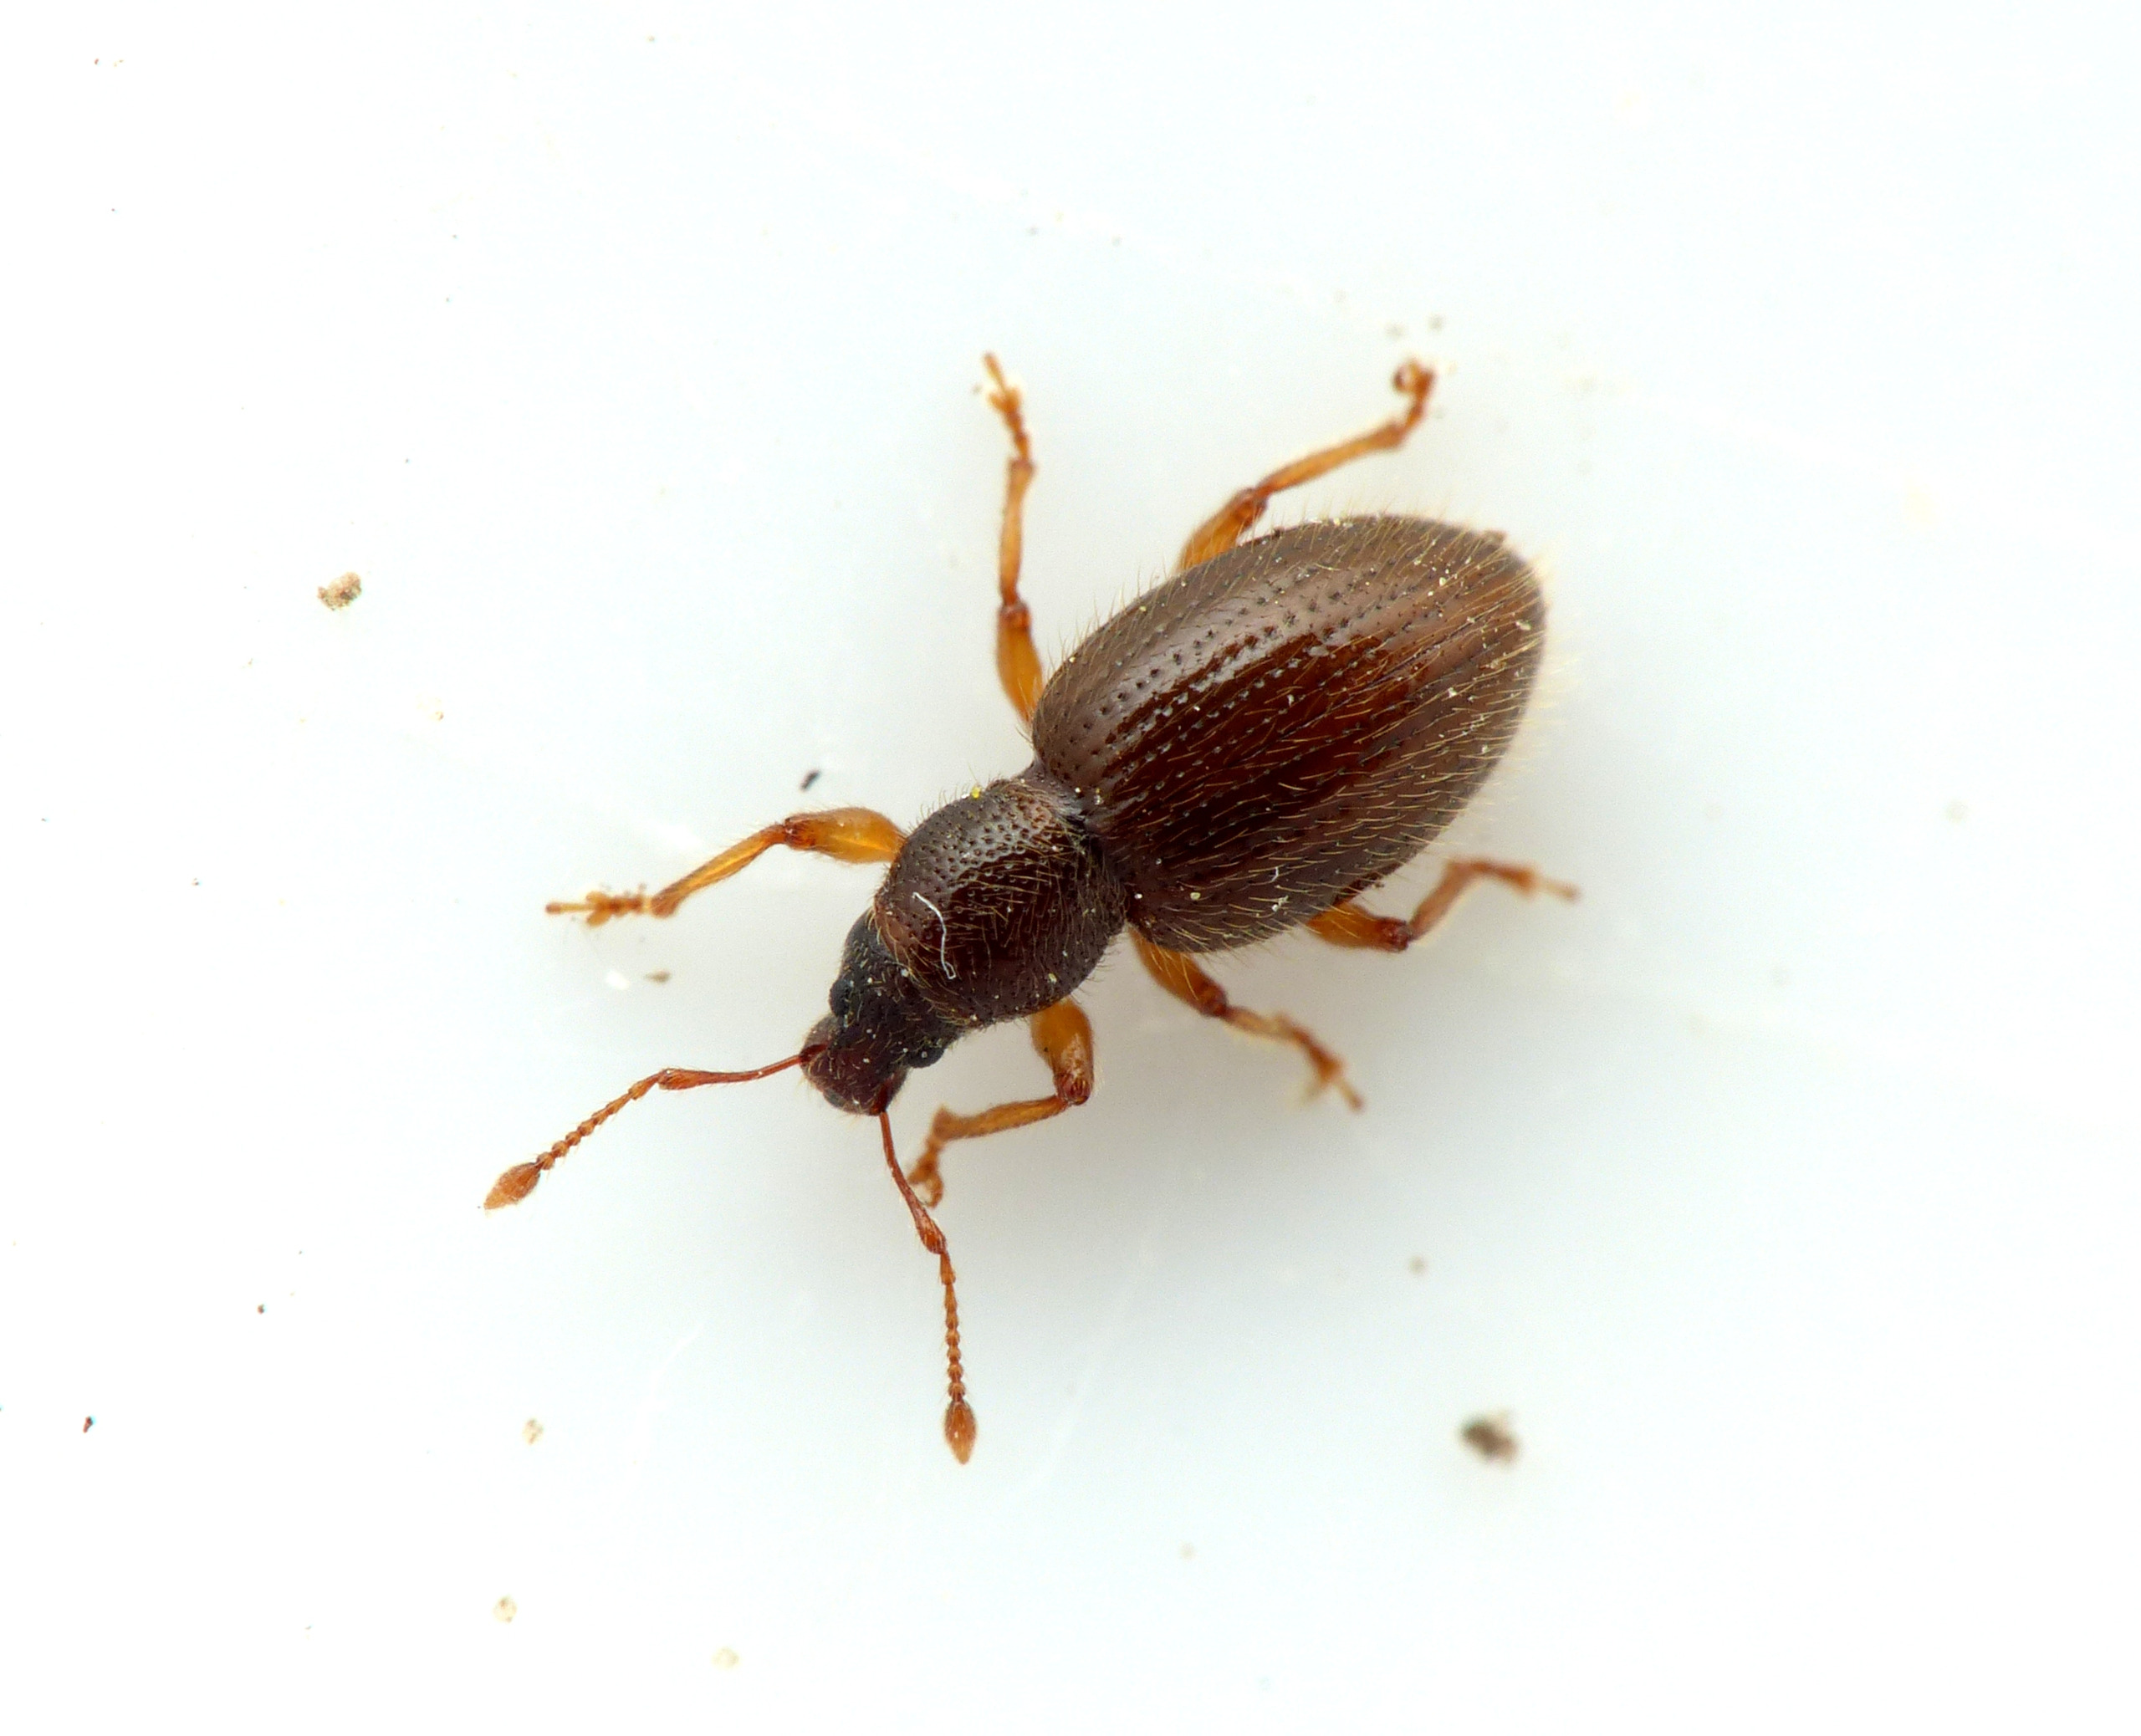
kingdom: Animalia
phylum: Arthropoda
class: Insecta
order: Coleoptera
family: Curculionidae
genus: Exomias
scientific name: Exomias pellucidus
